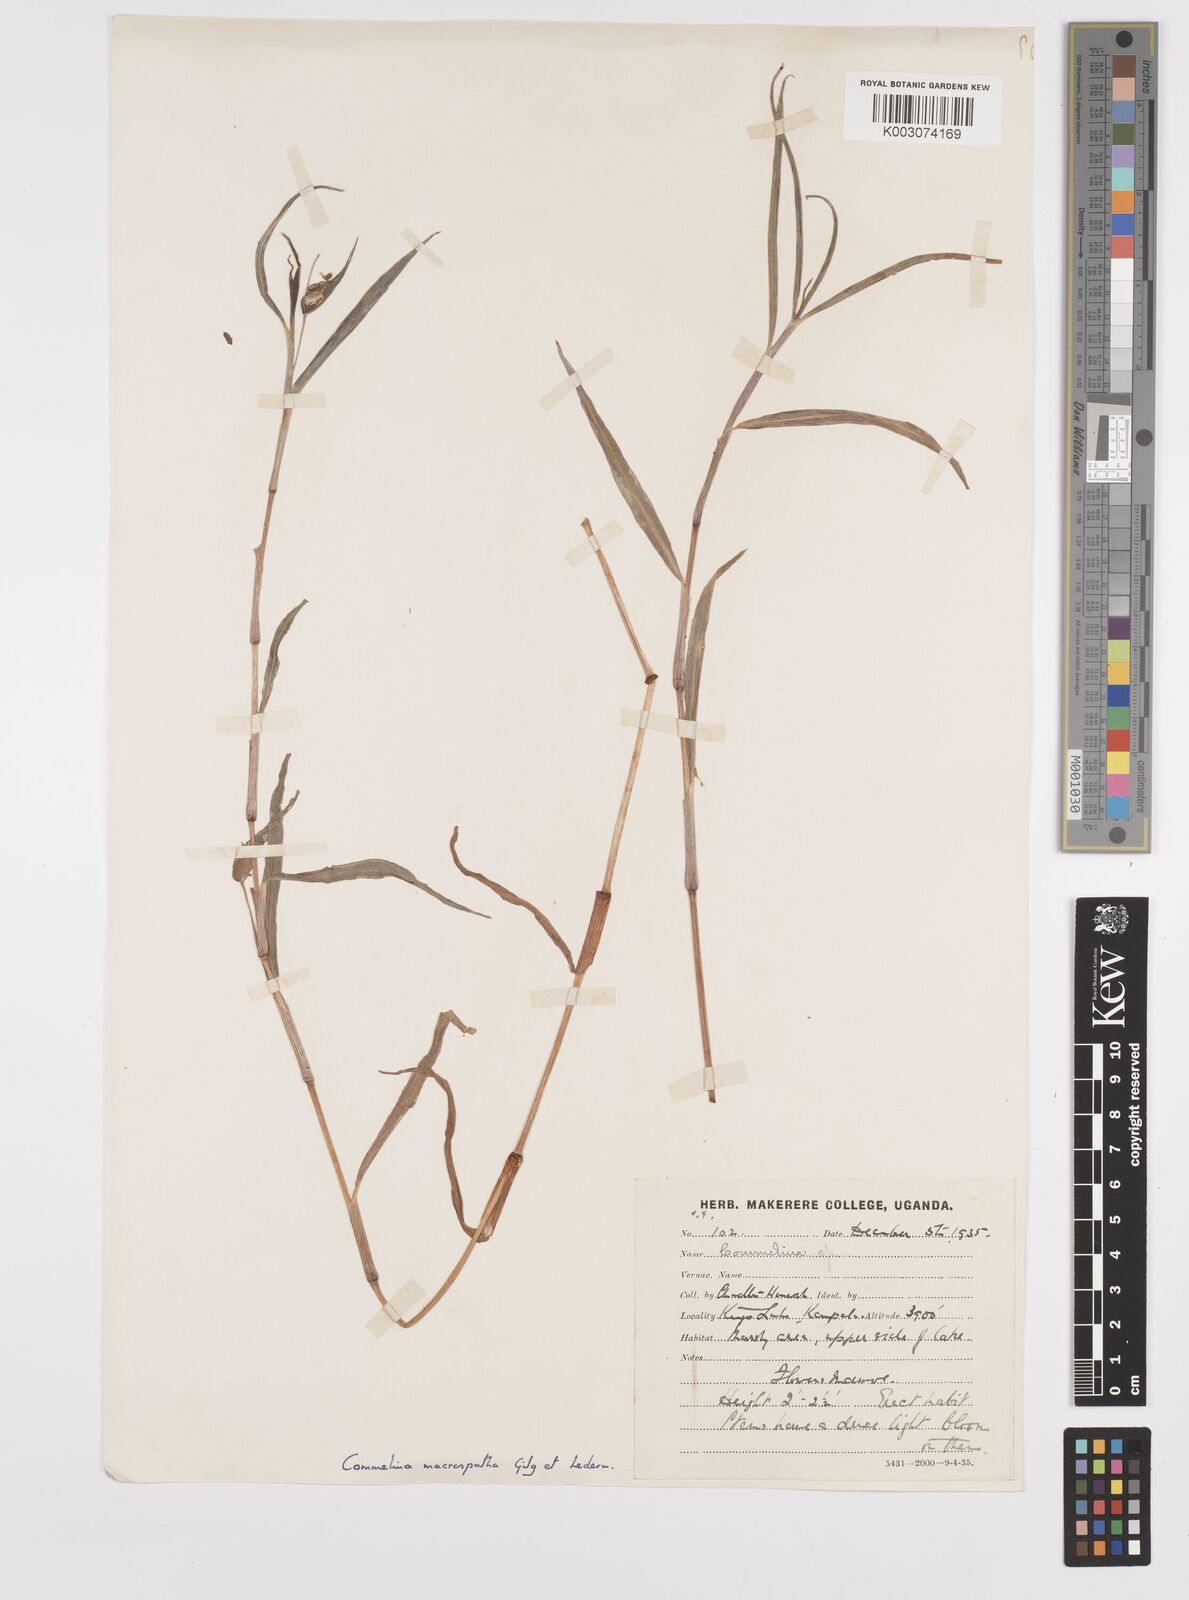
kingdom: Plantae
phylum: Tracheophyta
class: Liliopsida
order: Commelinales
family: Commelinaceae
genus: Commelina
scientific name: Commelina macrospatha
